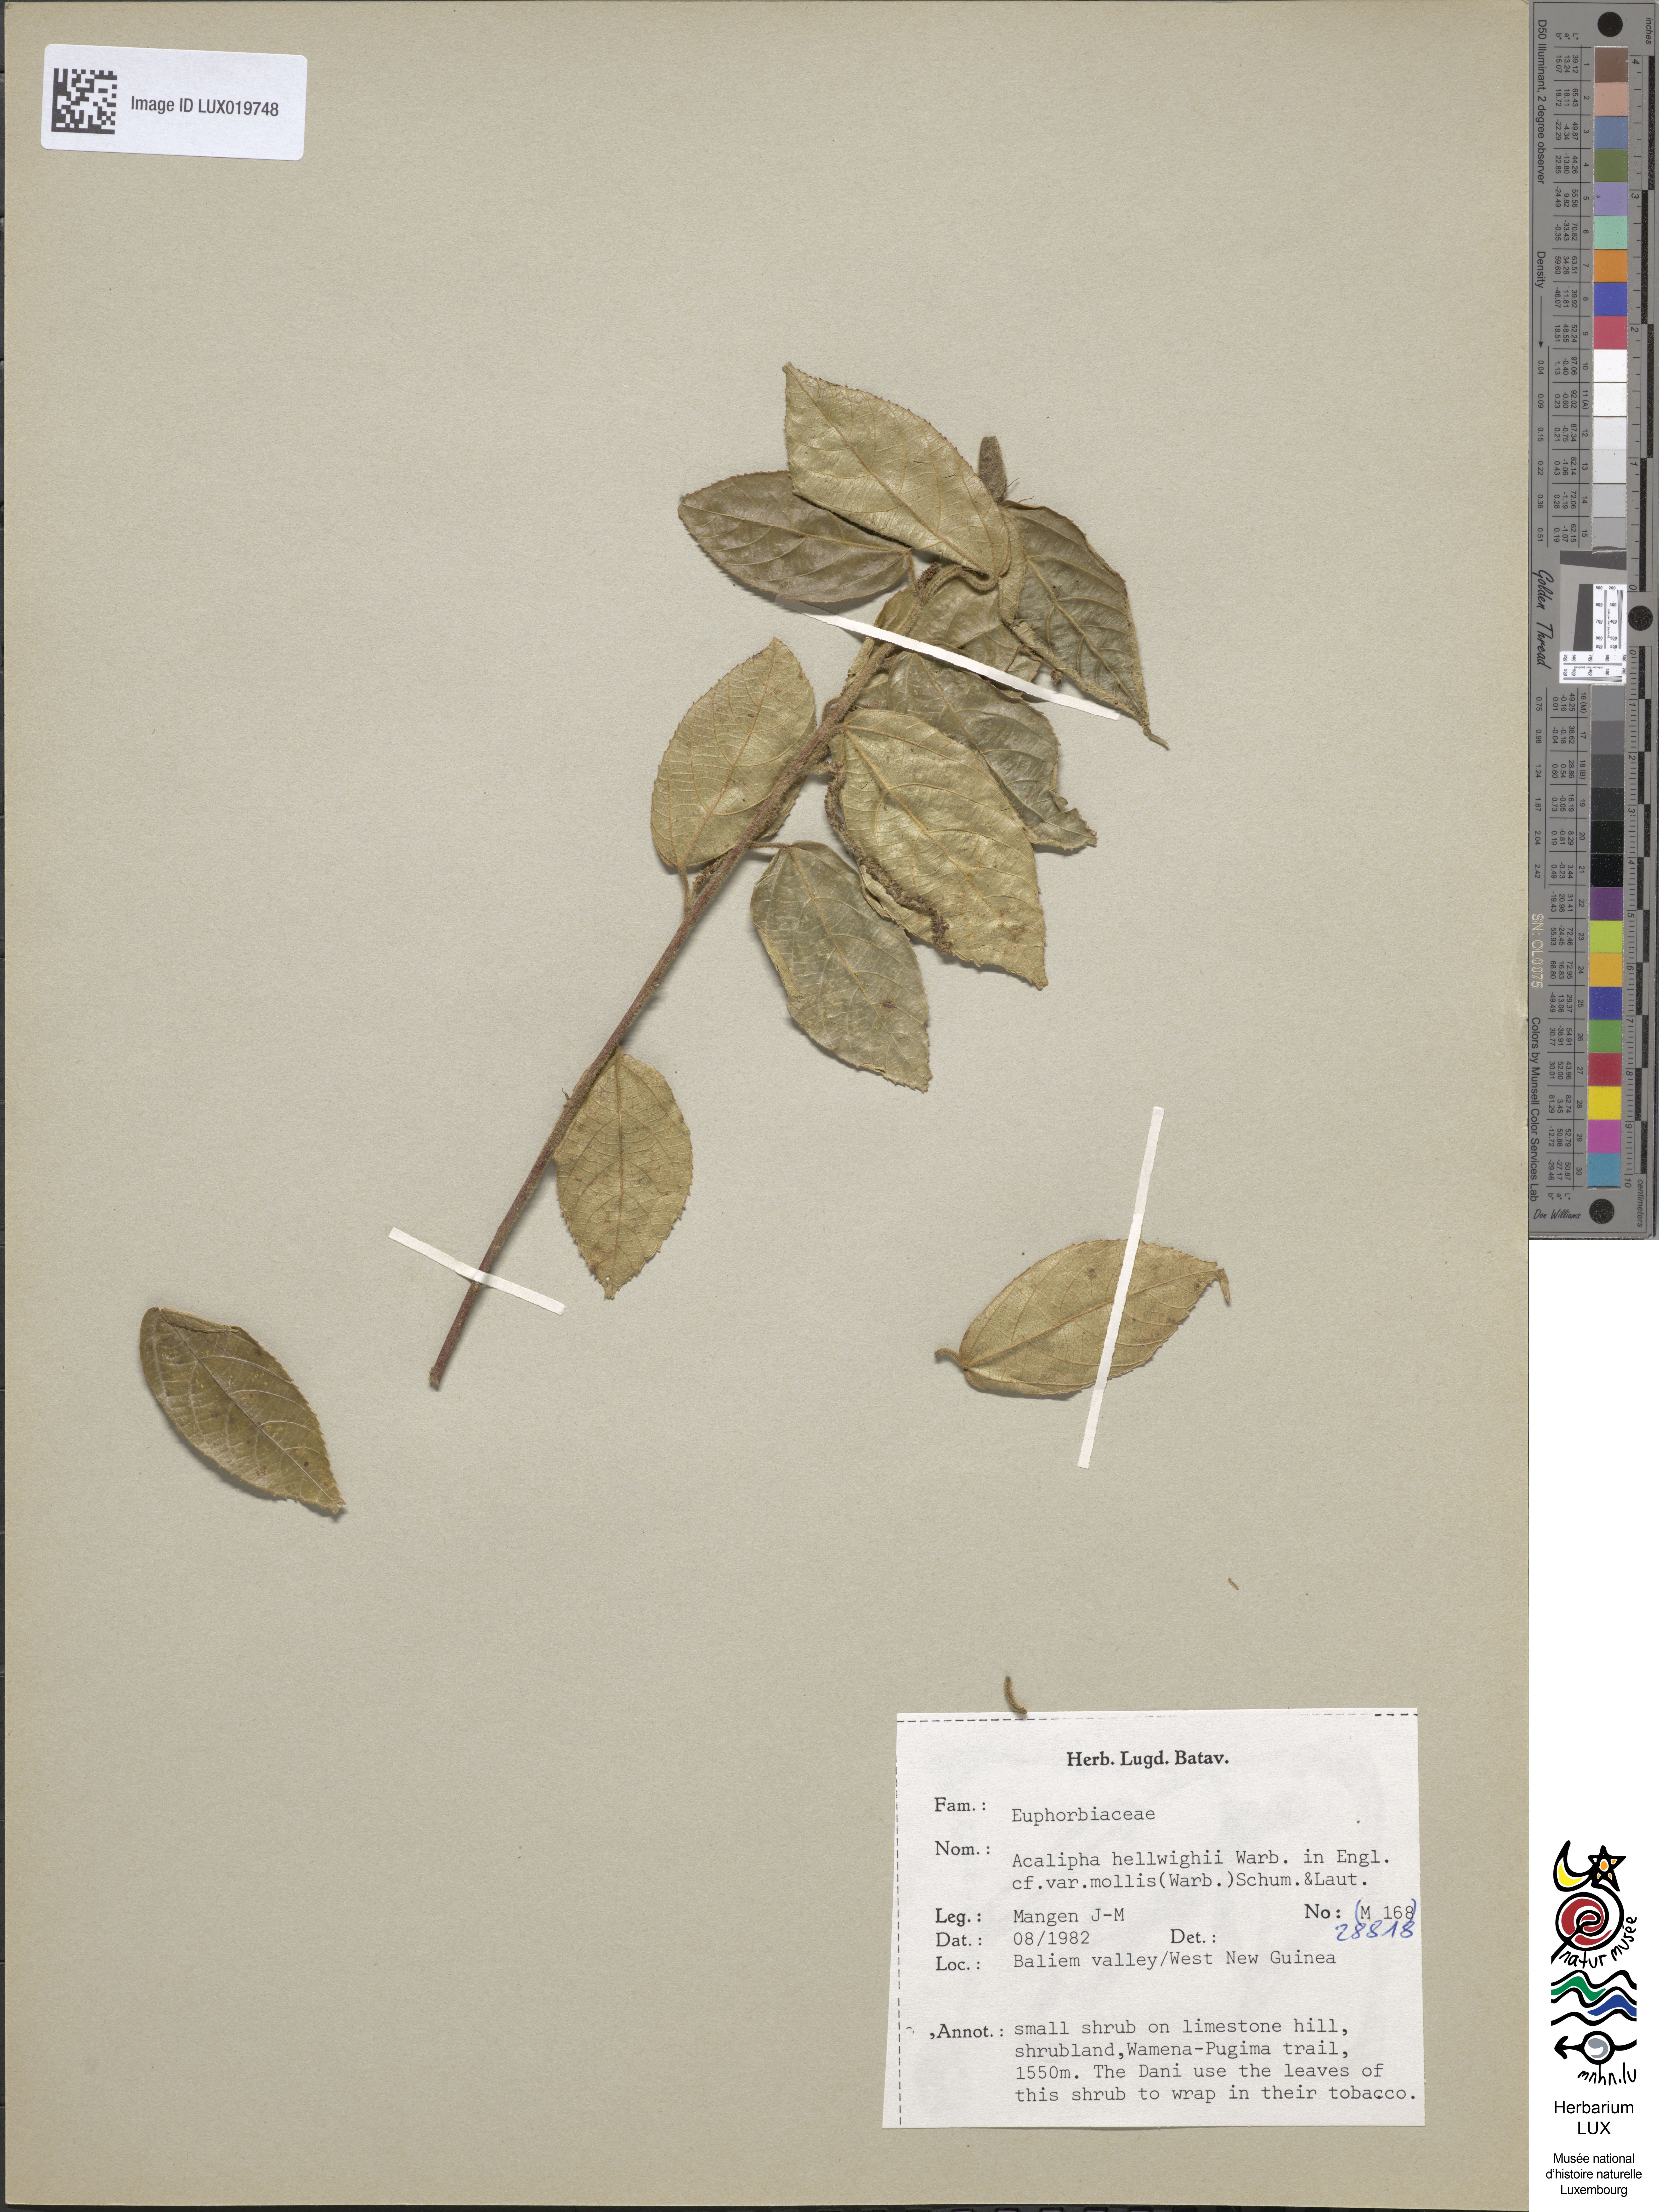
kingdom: Plantae
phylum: Tracheophyta
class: Magnoliopsida
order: Malpighiales
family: Euphorbiaceae
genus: Acalypha
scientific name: Acalypha hellwigii
